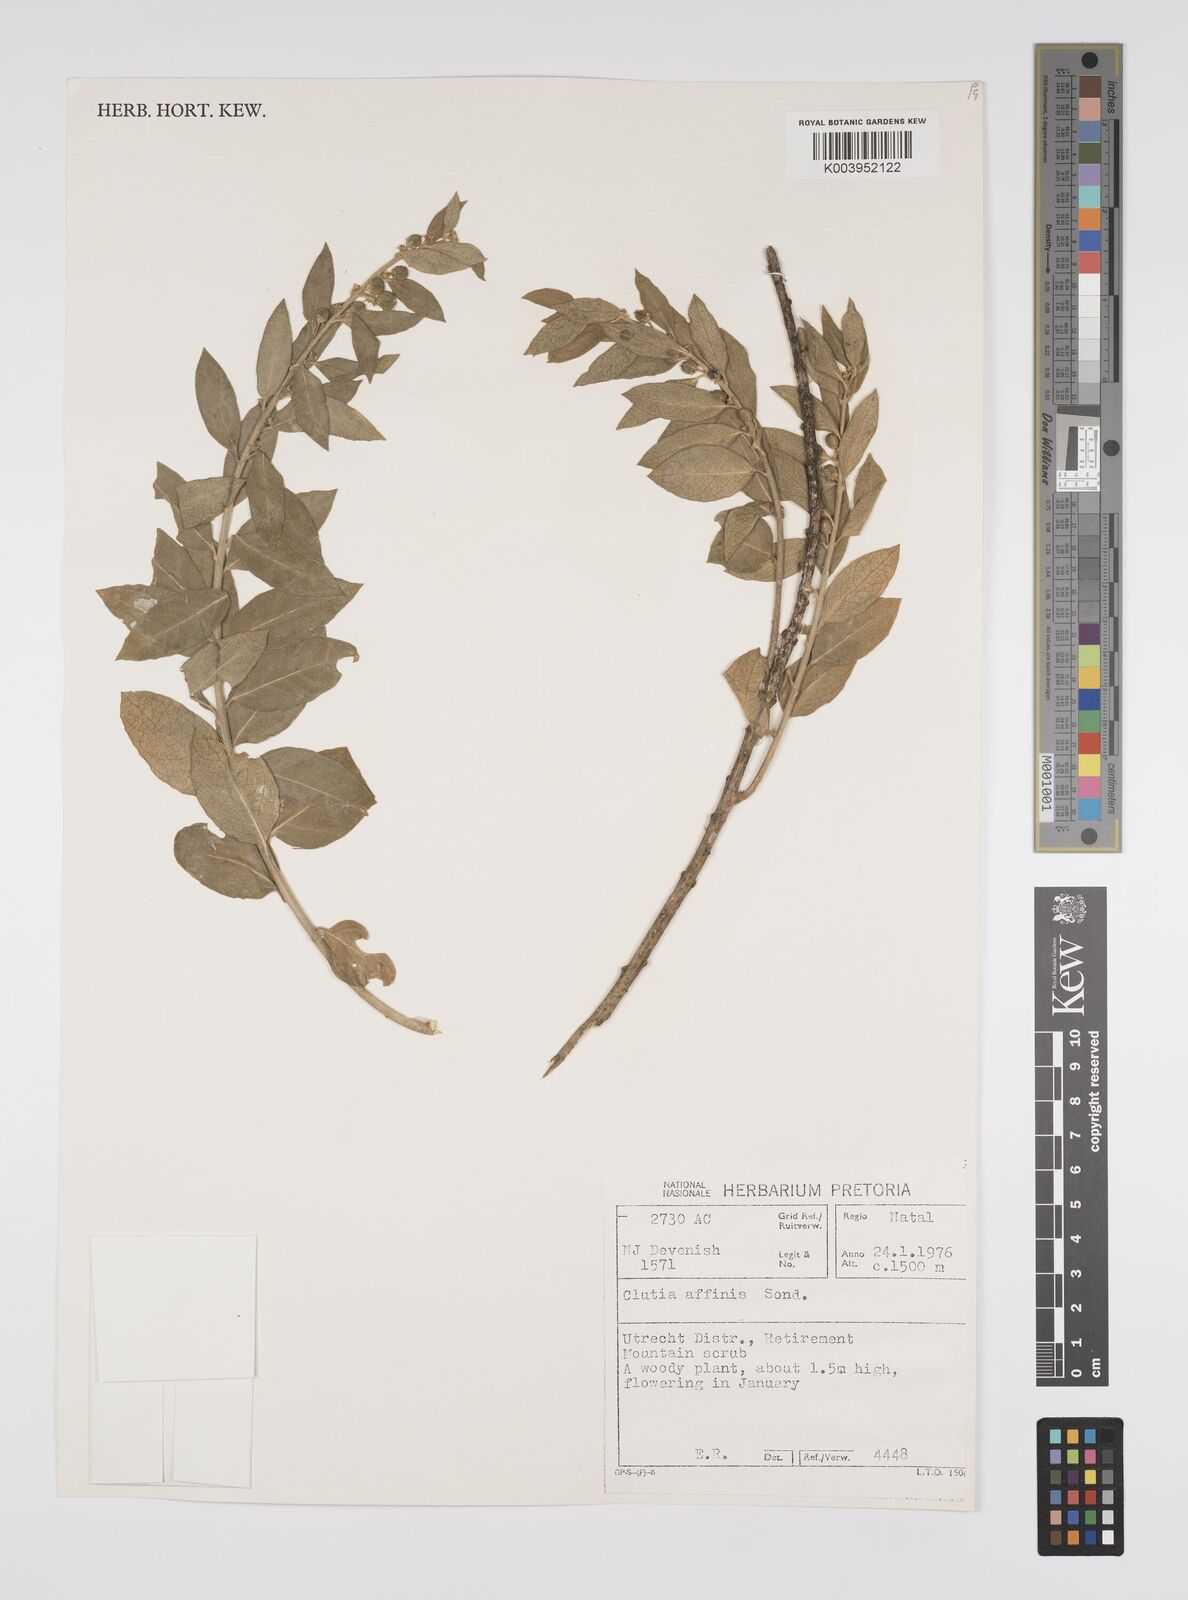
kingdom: Plantae
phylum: Tracheophyta
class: Magnoliopsida
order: Malpighiales
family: Peraceae
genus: Clutia
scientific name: Clutia affinis
